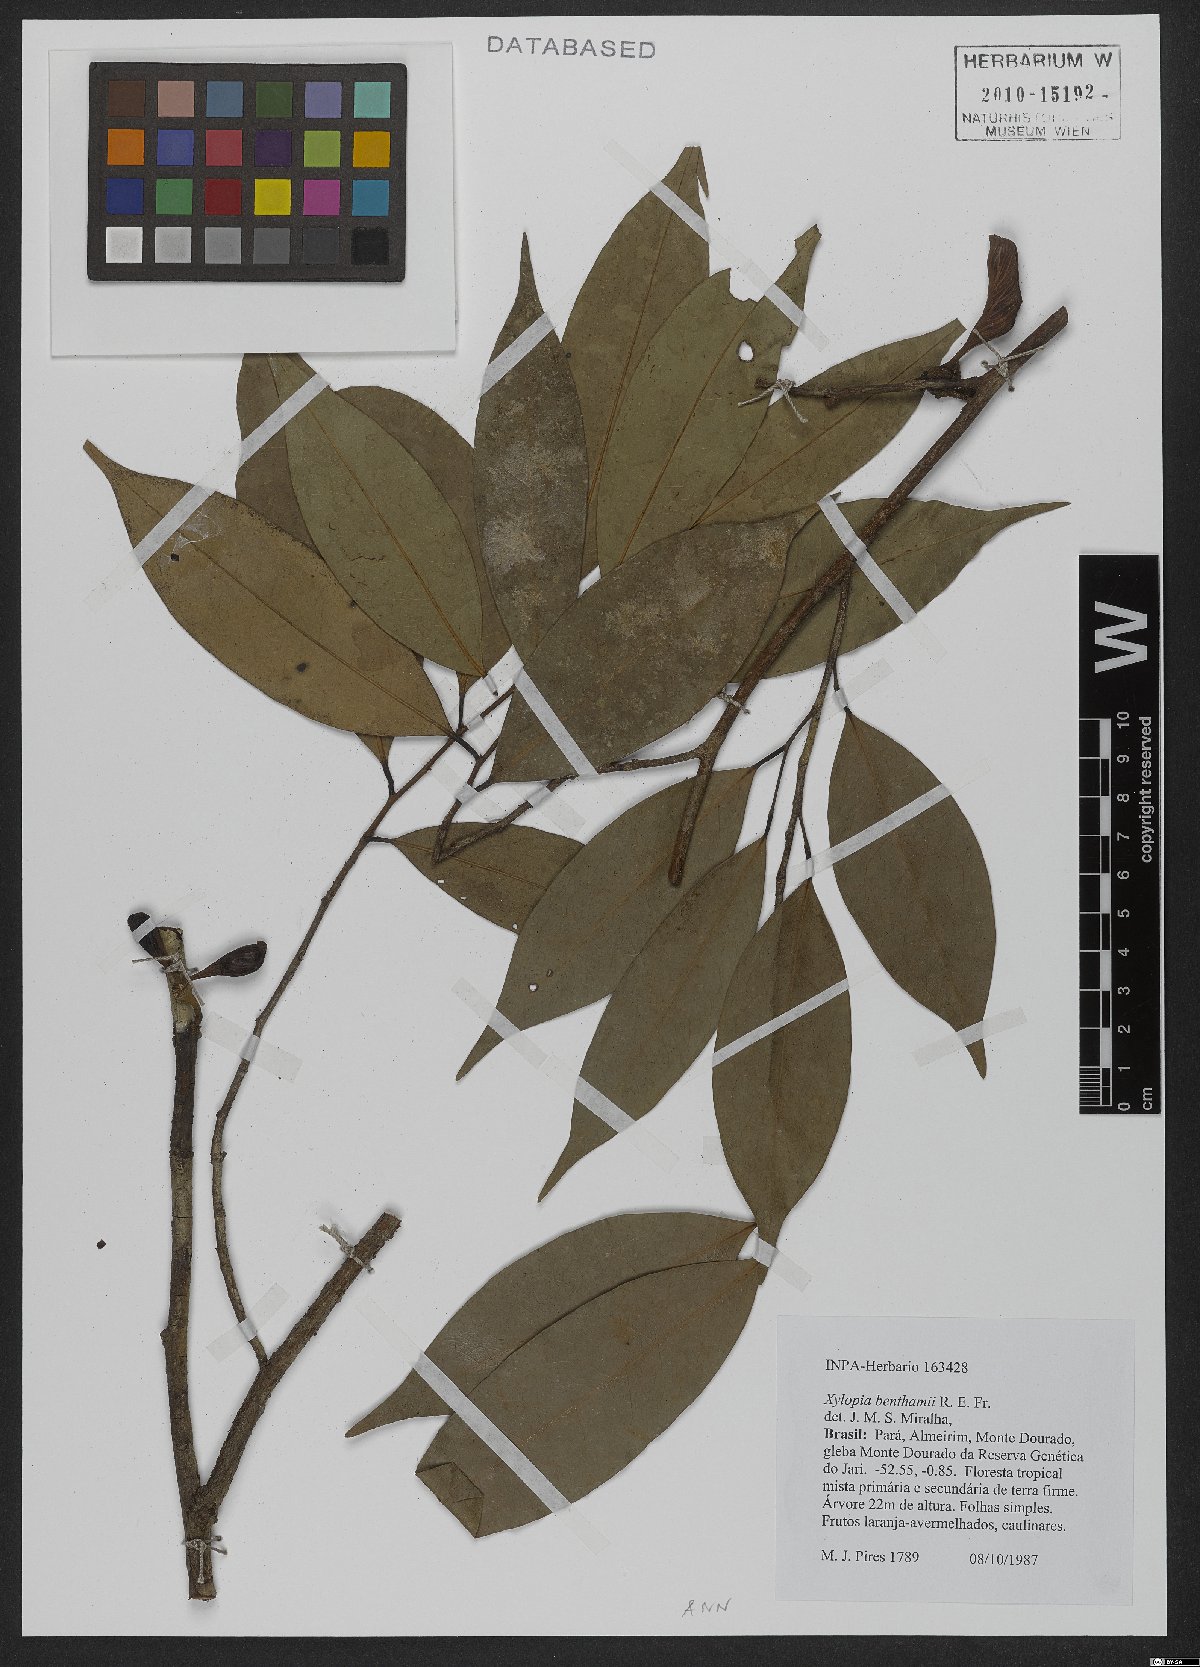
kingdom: Plantae
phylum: Tracheophyta
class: Magnoliopsida
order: Magnoliales
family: Annonaceae
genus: Xylopia
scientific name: Xylopia benthamii
